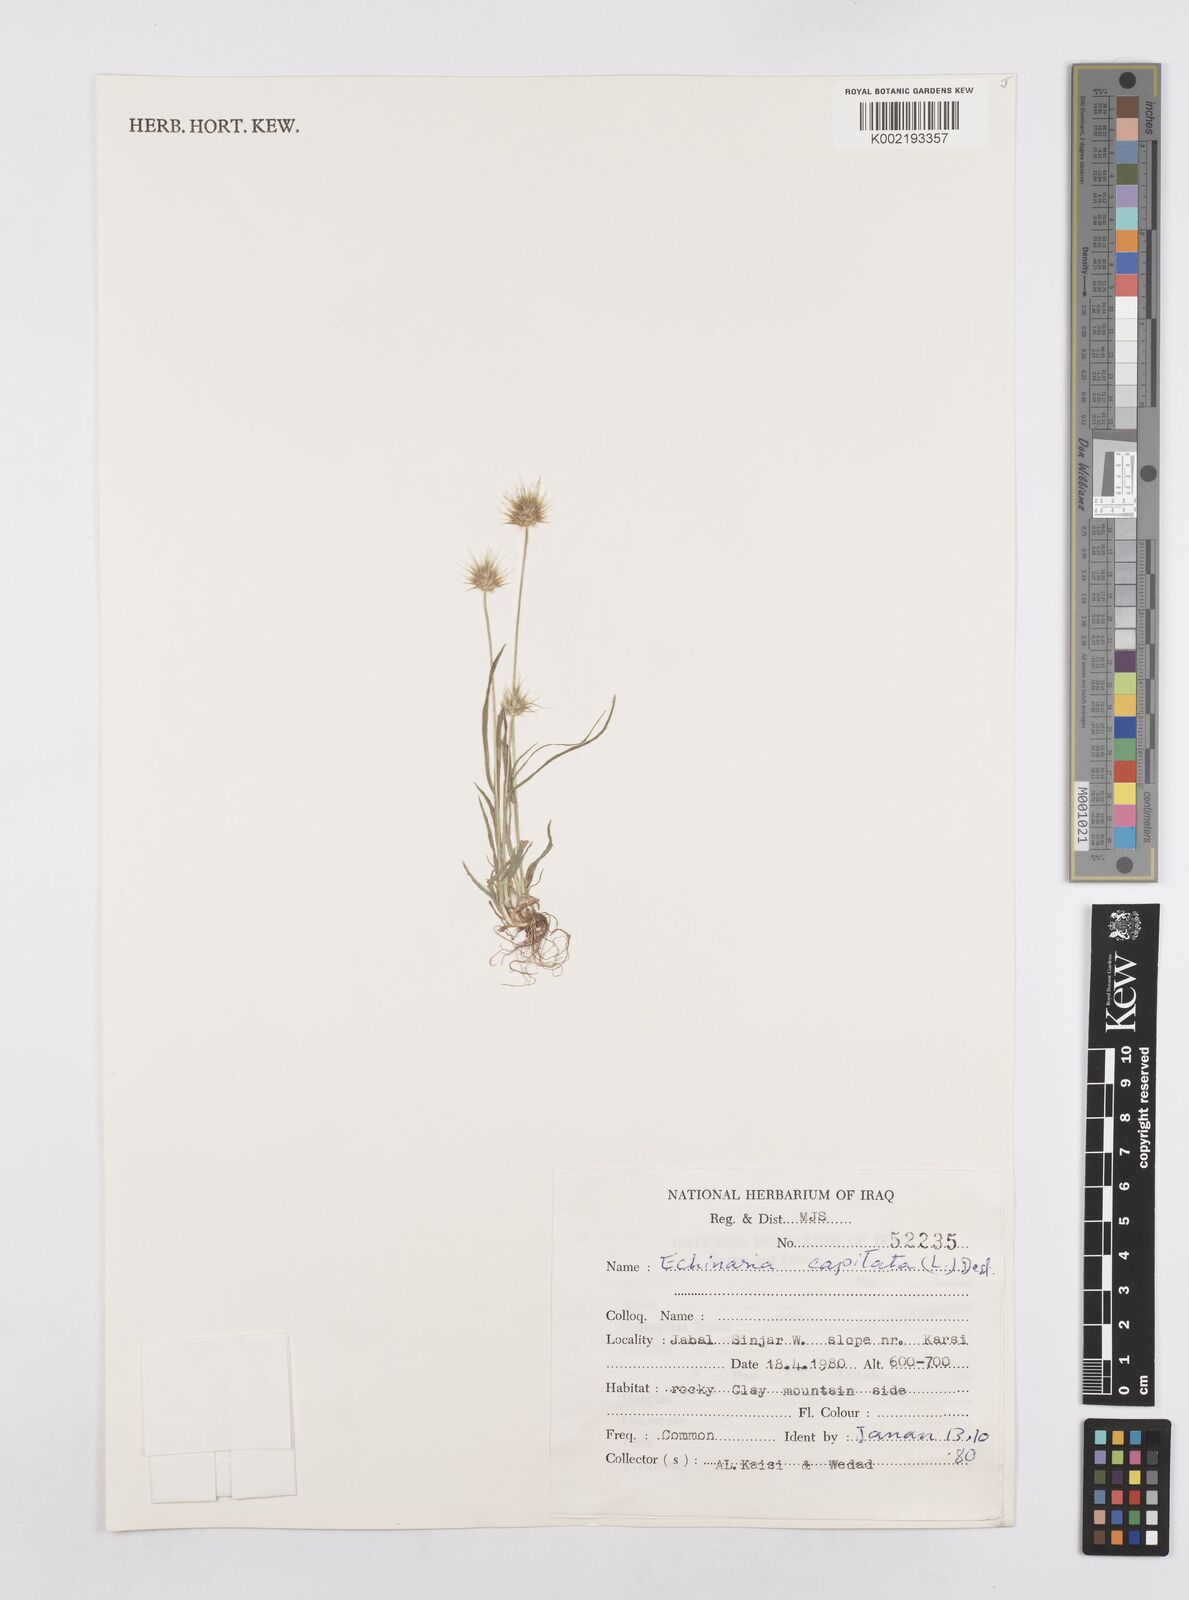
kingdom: Plantae
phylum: Tracheophyta
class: Liliopsida
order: Poales
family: Poaceae
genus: Echinaria
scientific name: Echinaria capitata
